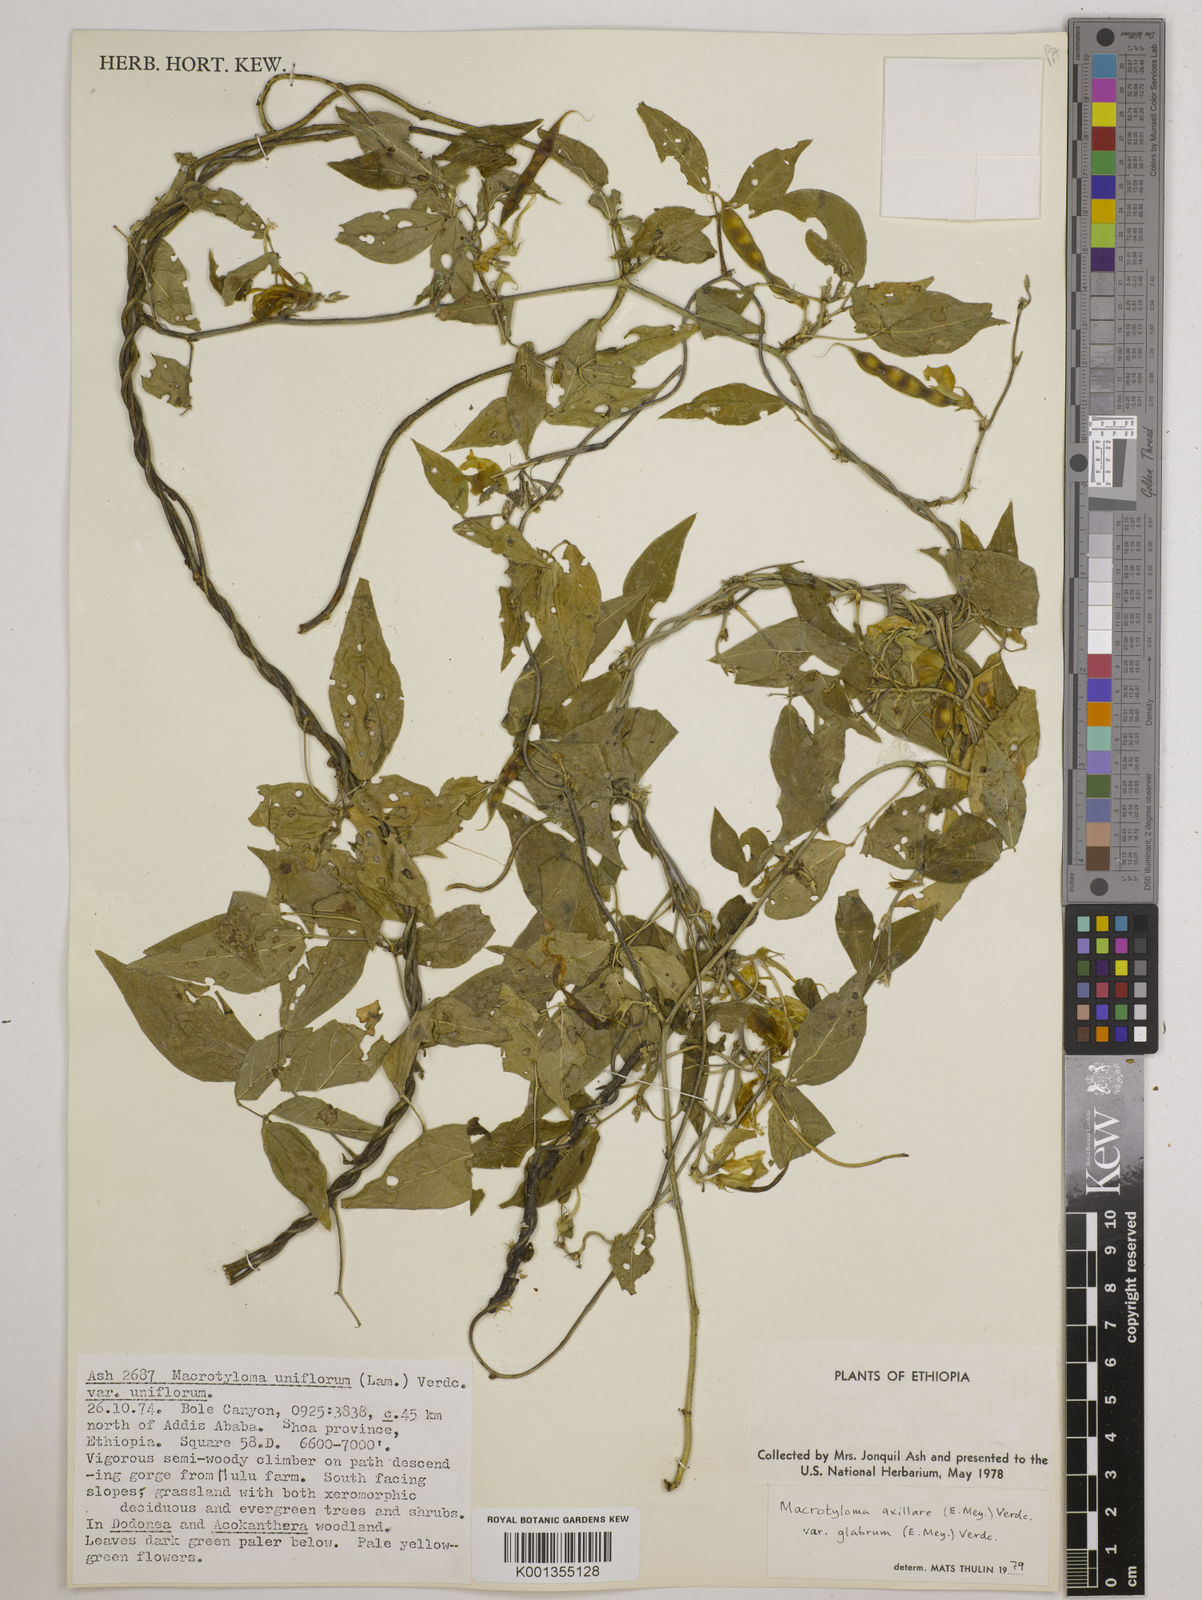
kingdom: Plantae
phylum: Tracheophyta
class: Magnoliopsida
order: Fabales
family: Fabaceae
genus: Macrotyloma
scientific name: Macrotyloma
